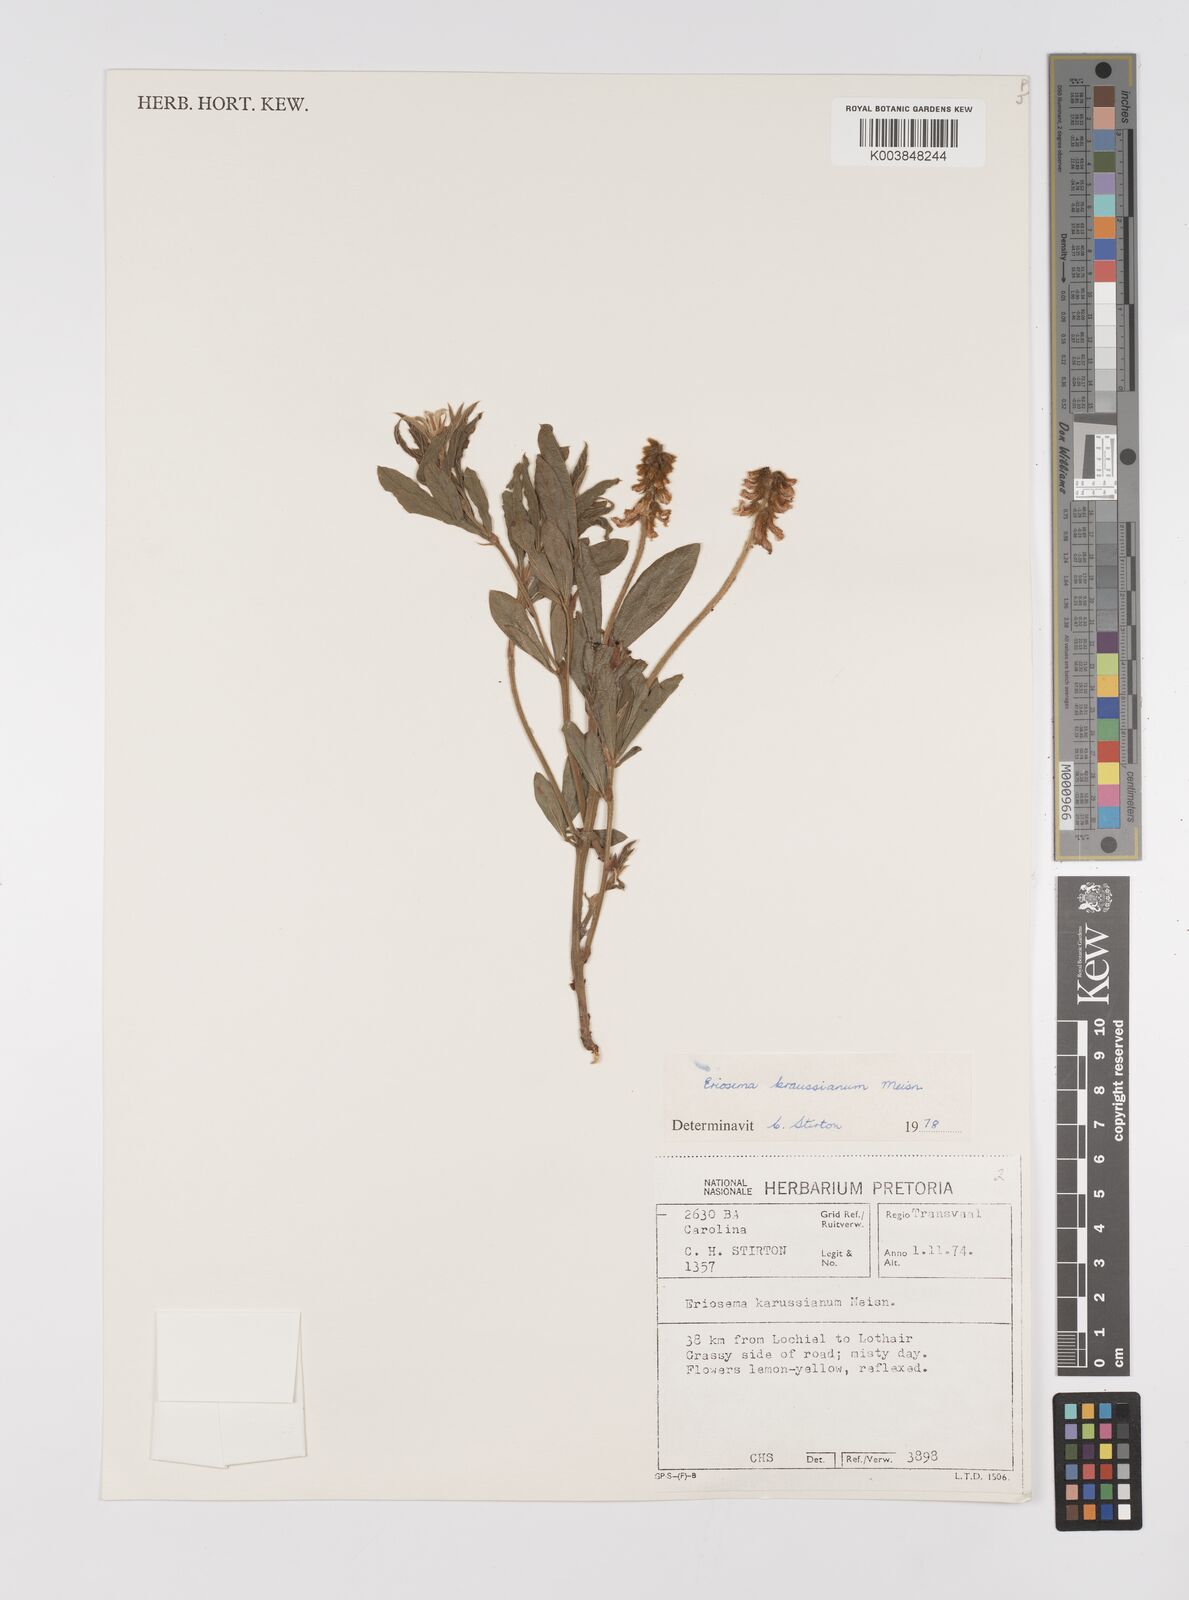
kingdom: Plantae
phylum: Tracheophyta
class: Magnoliopsida
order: Fabales
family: Fabaceae
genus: Eriosema
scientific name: Eriosema kraussianum
